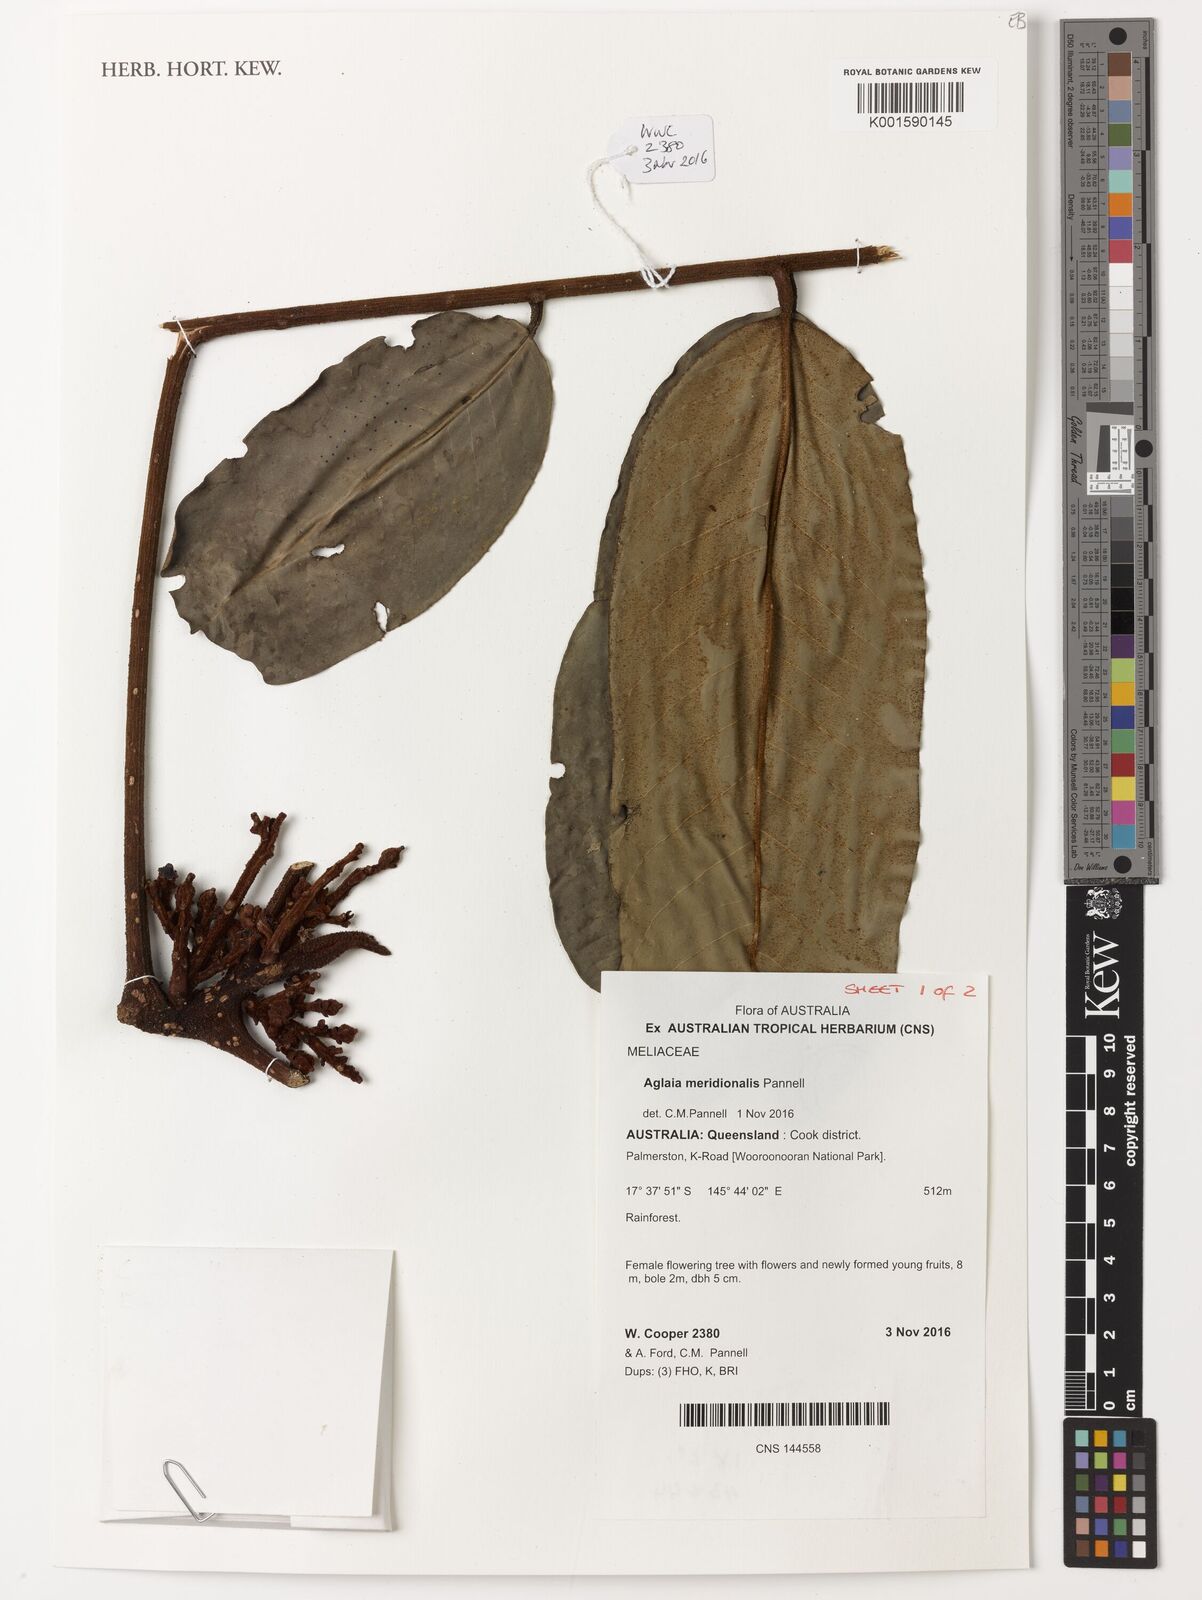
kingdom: Plantae
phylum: Tracheophyta
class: Magnoliopsida
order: Sapindales
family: Meliaceae
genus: Aglaia
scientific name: Aglaia meridionalis
